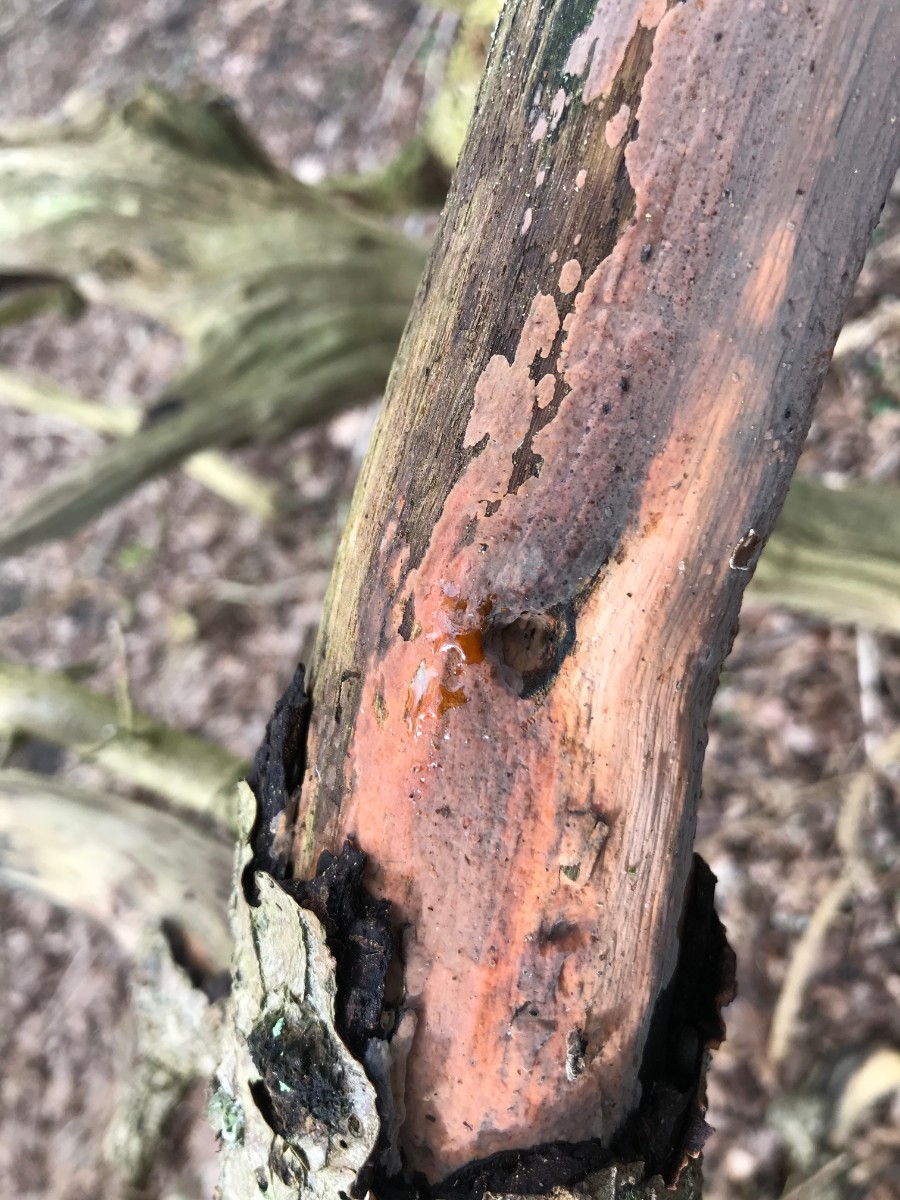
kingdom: Fungi
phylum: Basidiomycota
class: Agaricomycetes
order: Russulales
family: Peniophoraceae
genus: Peniophora
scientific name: Peniophora incarnata
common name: laksefarvet voksskind
